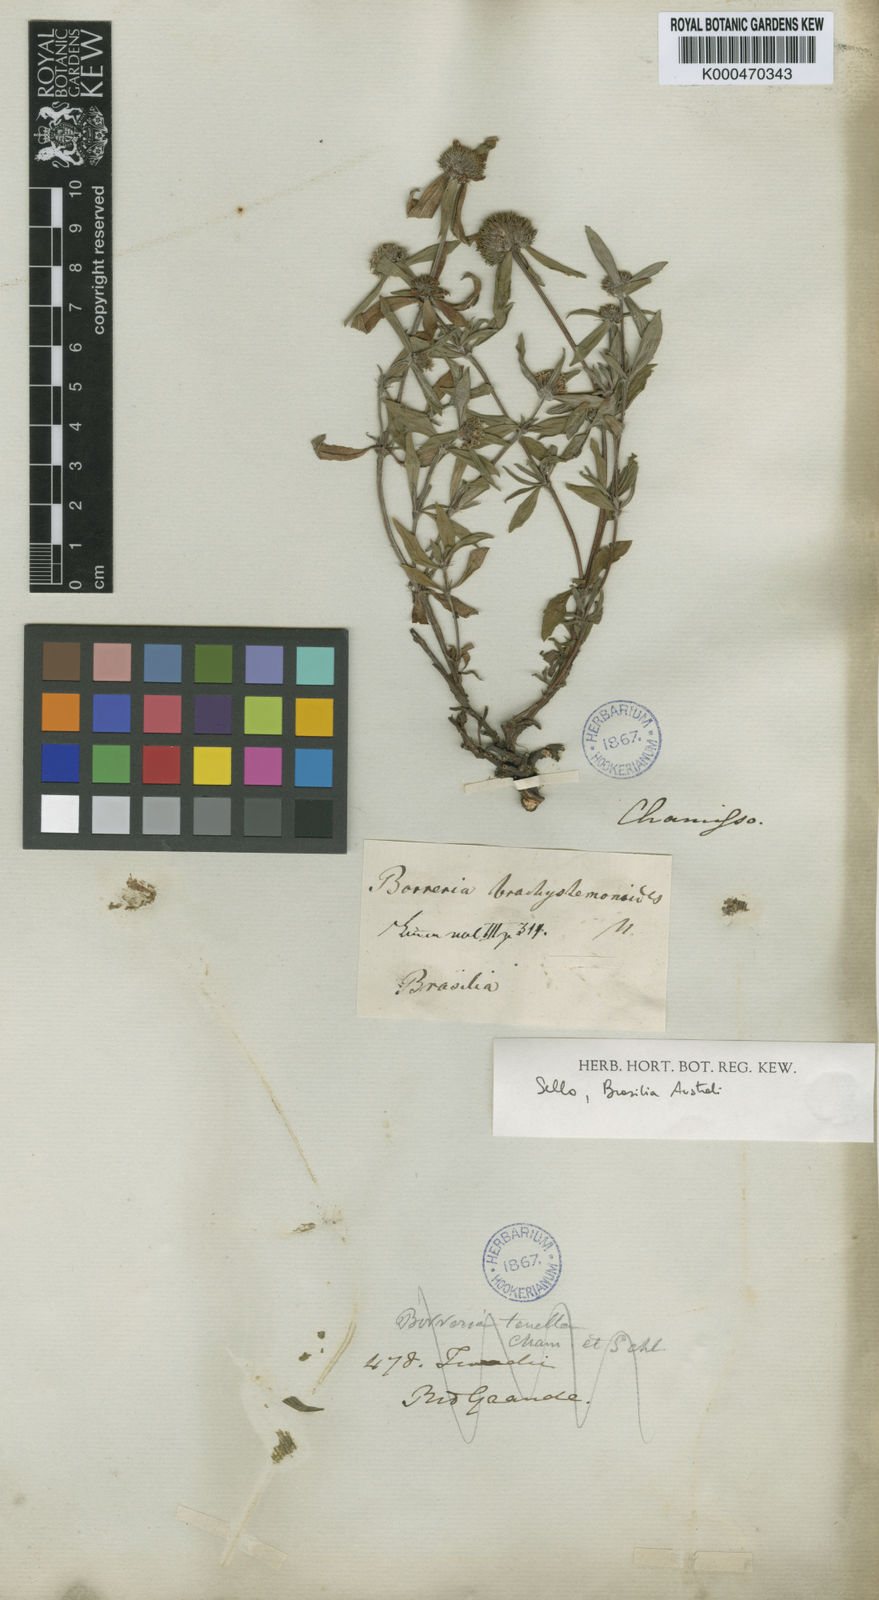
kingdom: Plantae
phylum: Tracheophyta
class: Magnoliopsida
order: Gentianales
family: Rubiaceae
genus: Spermacoce
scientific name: Spermacoce brachystemonoides
